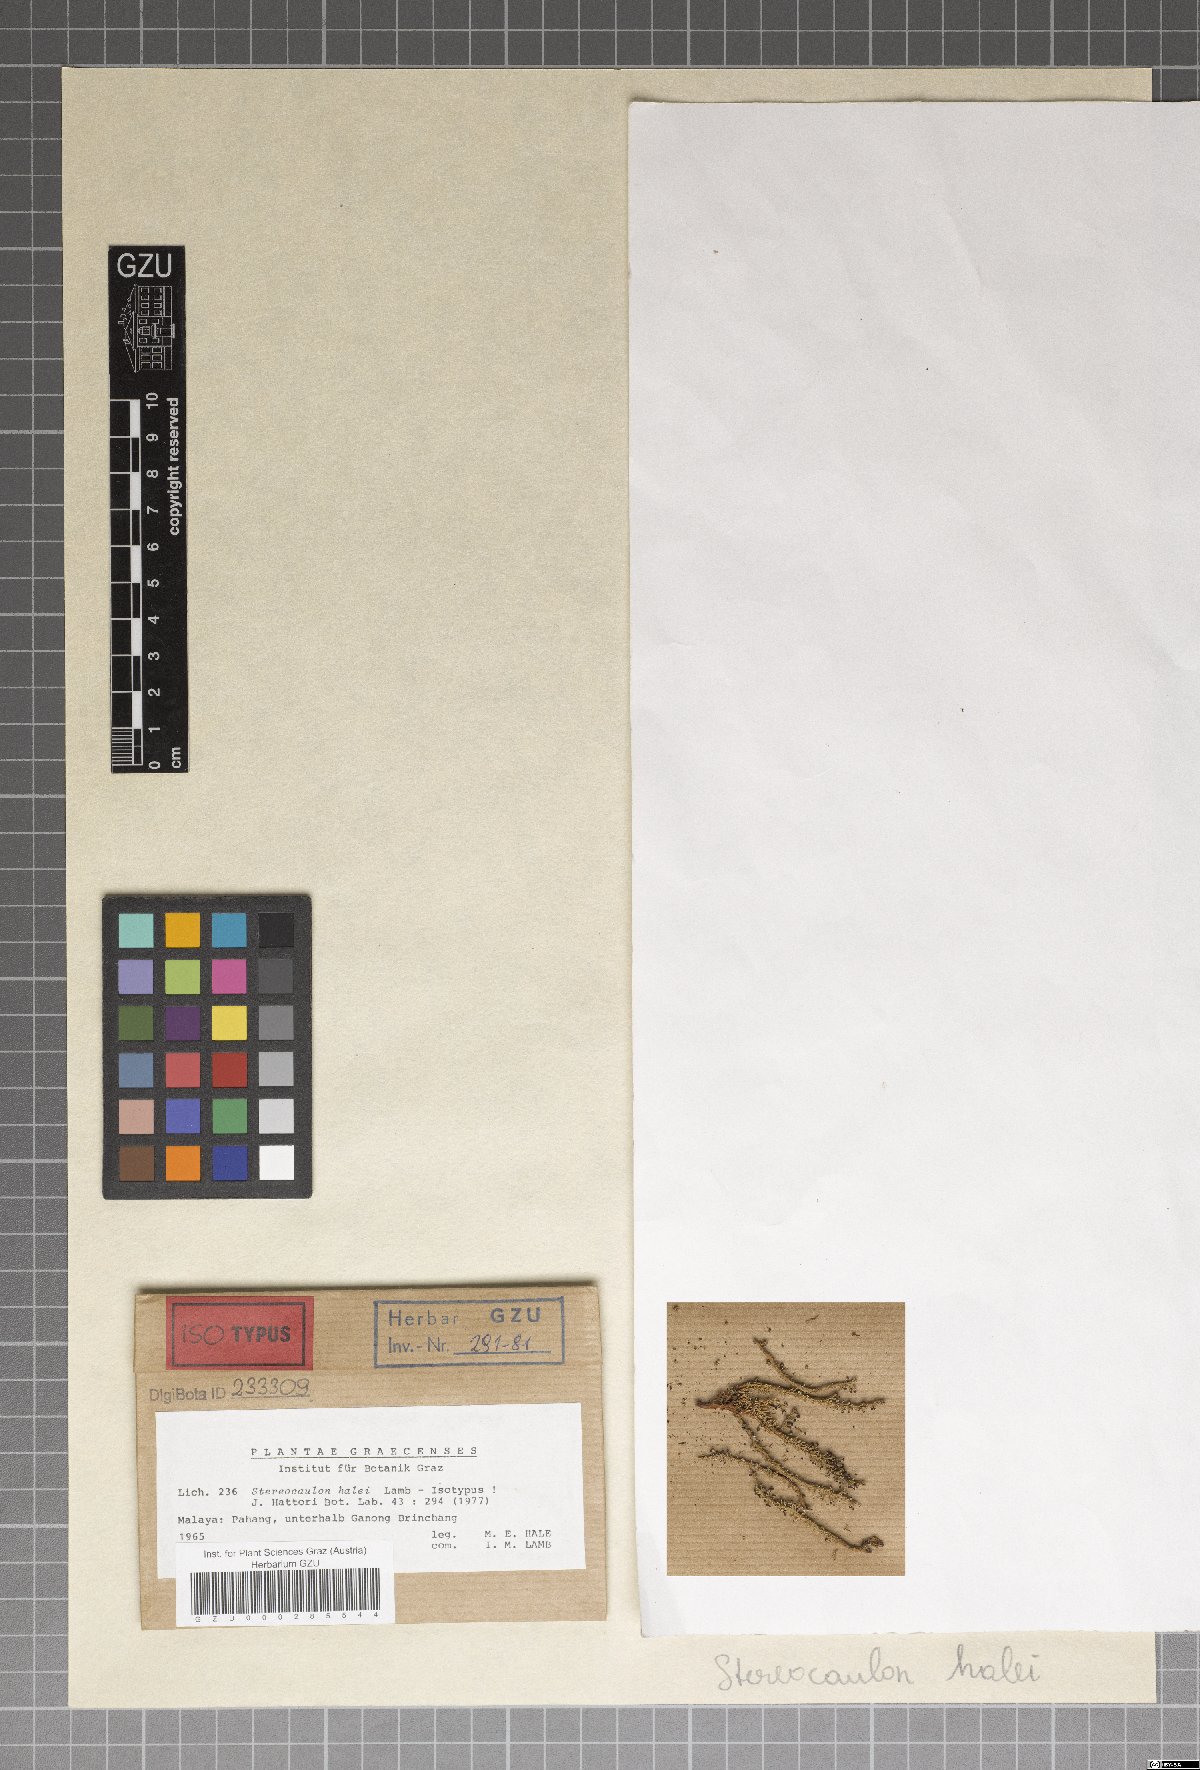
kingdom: Fungi
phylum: Ascomycota
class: Lecanoromycetes
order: Lecanorales
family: Stereocaulaceae
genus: Stereocaulon
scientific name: Stereocaulon halei
